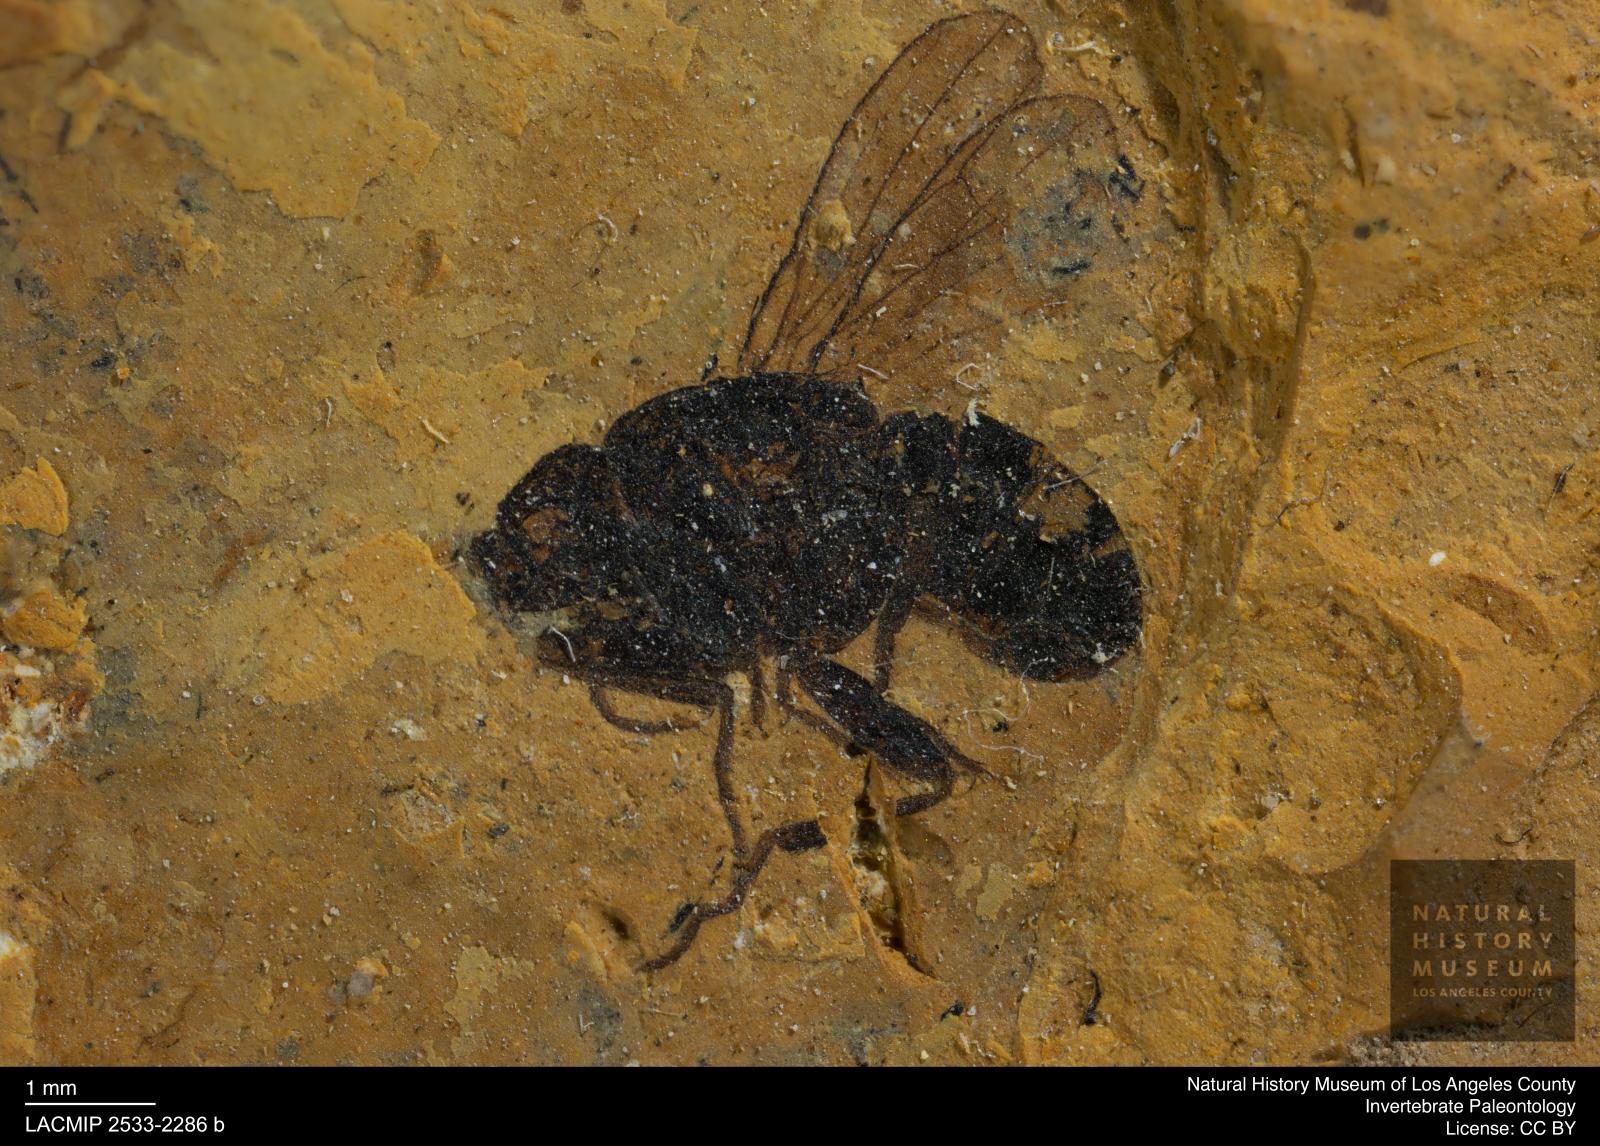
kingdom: Animalia
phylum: Arthropoda
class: Insecta
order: Diptera
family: Heleomyzidae
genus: Heleomyza
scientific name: Heleomyza Leria bauckhorni
